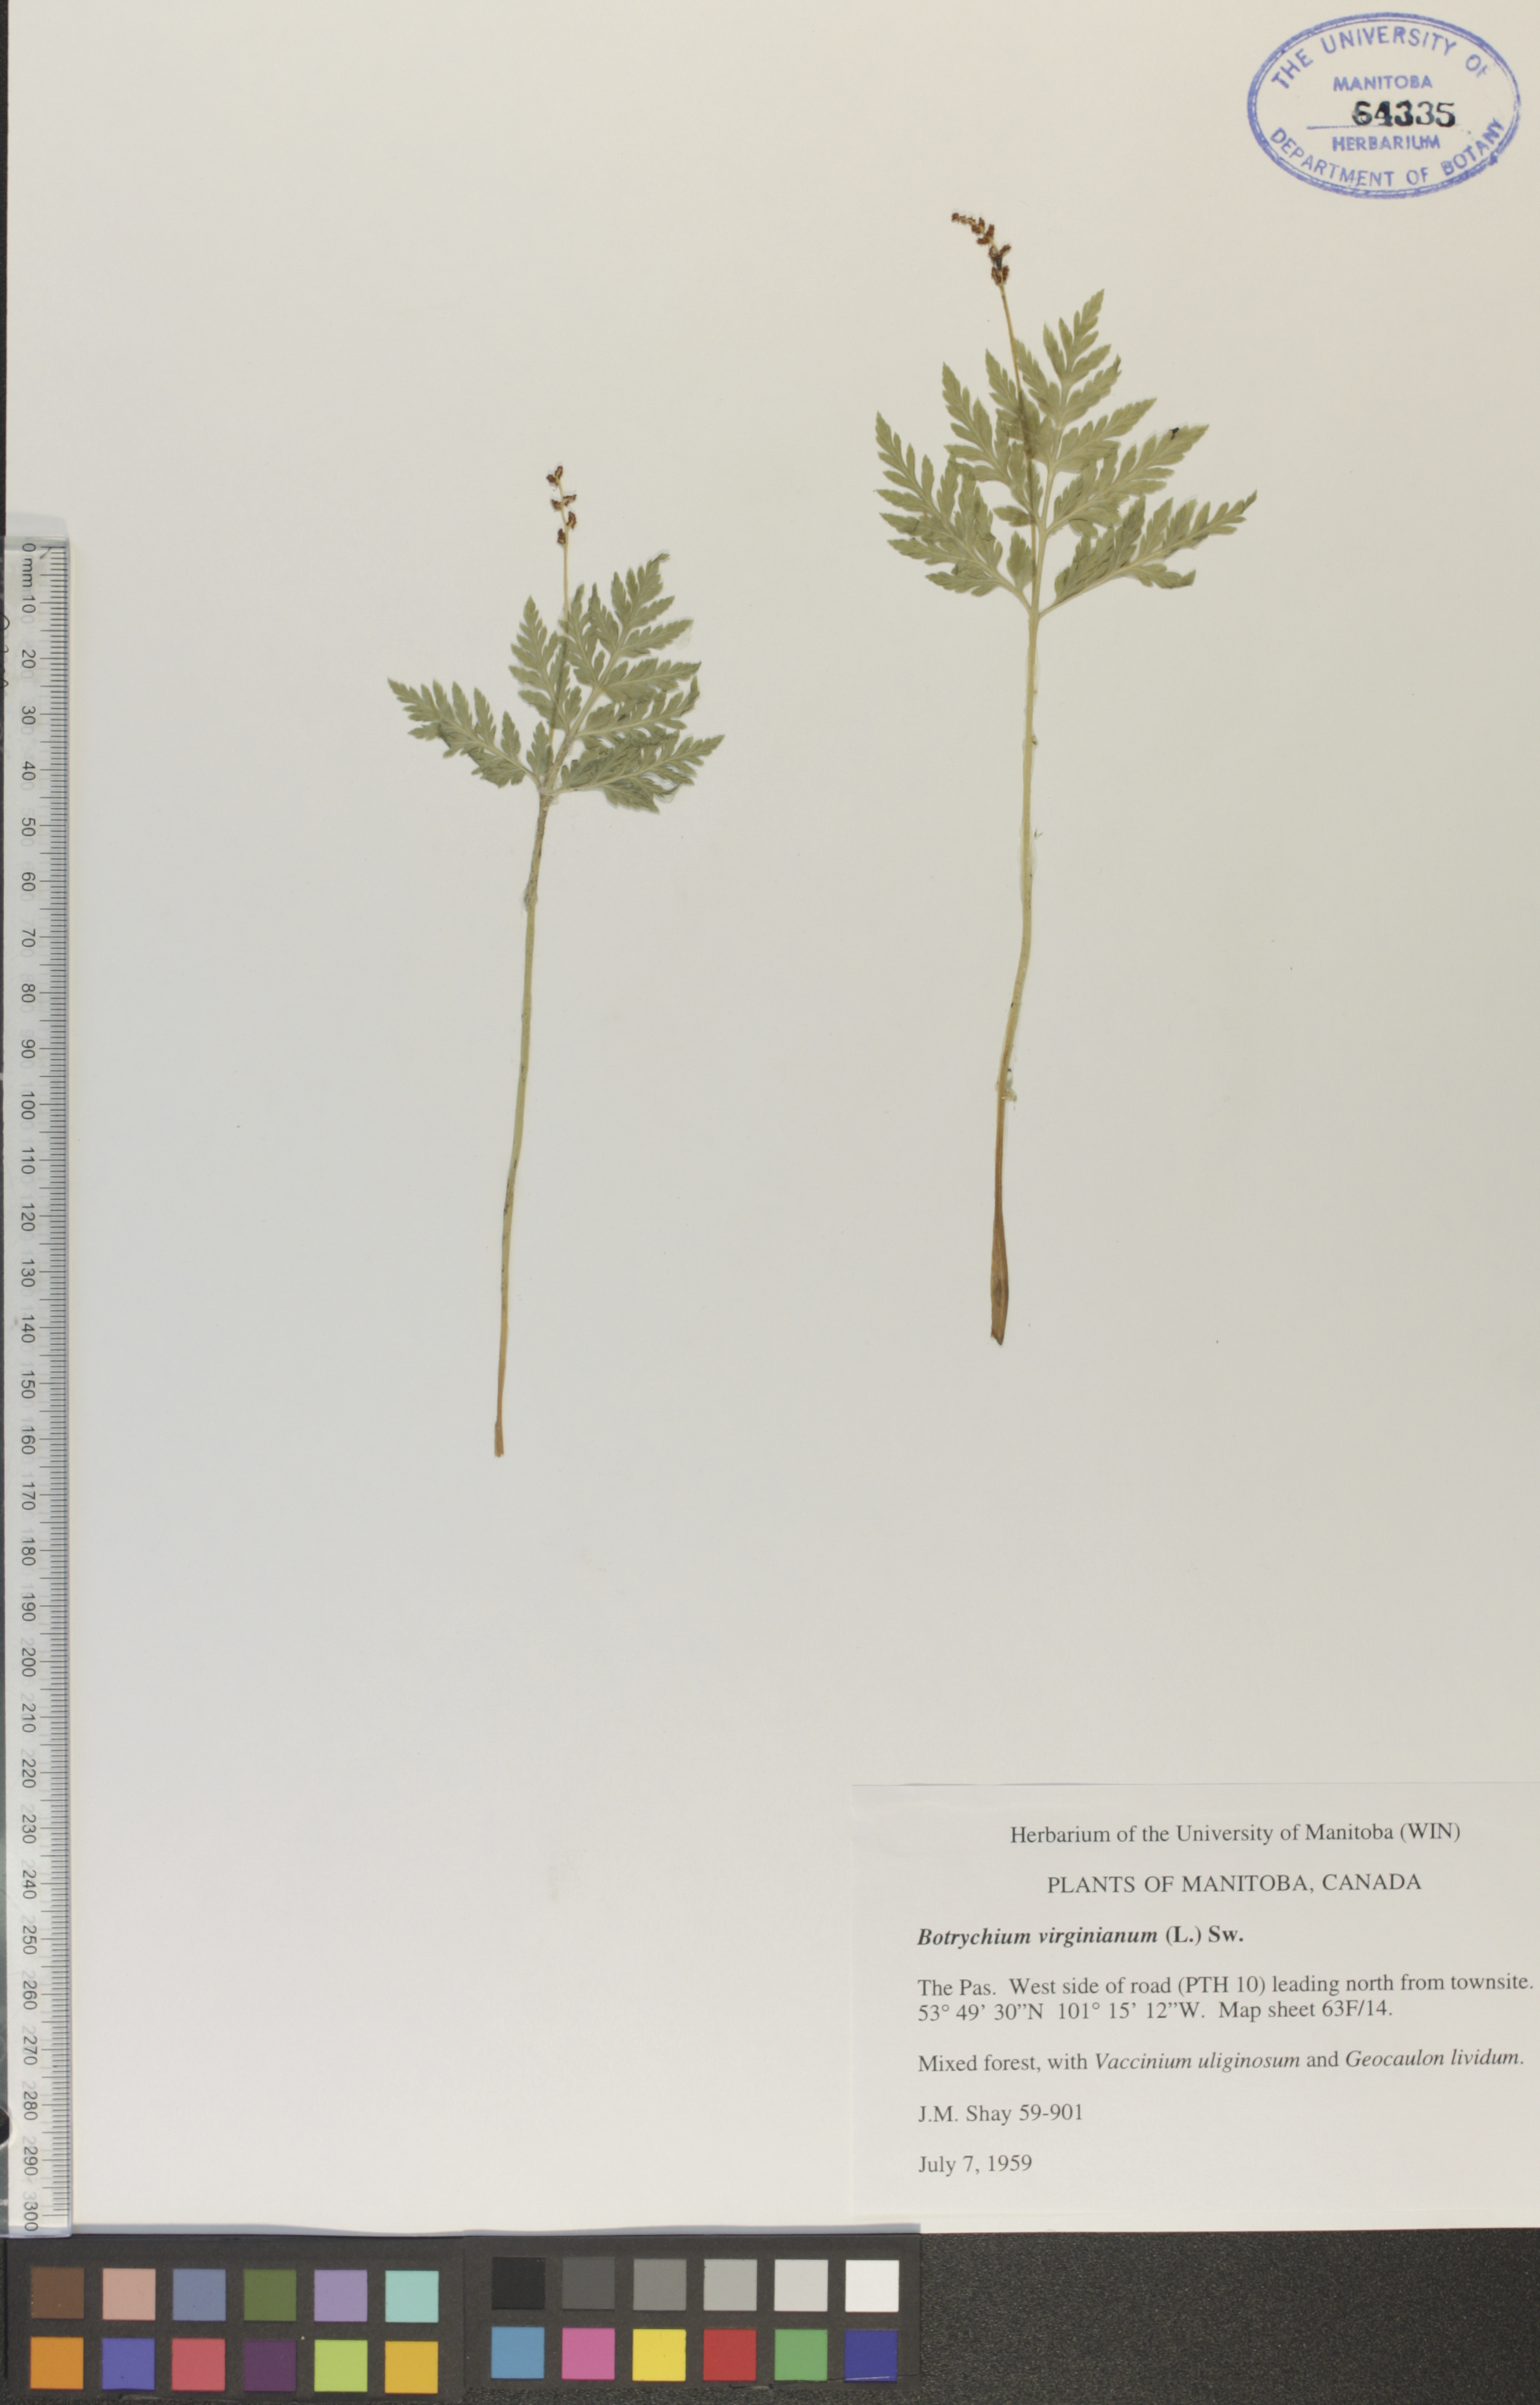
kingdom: Plantae
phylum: Tracheophyta
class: Polypodiopsida
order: Ophioglossales
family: Ophioglossaceae
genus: Botrypus
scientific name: Botrypus virginianus
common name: Common grapefern
